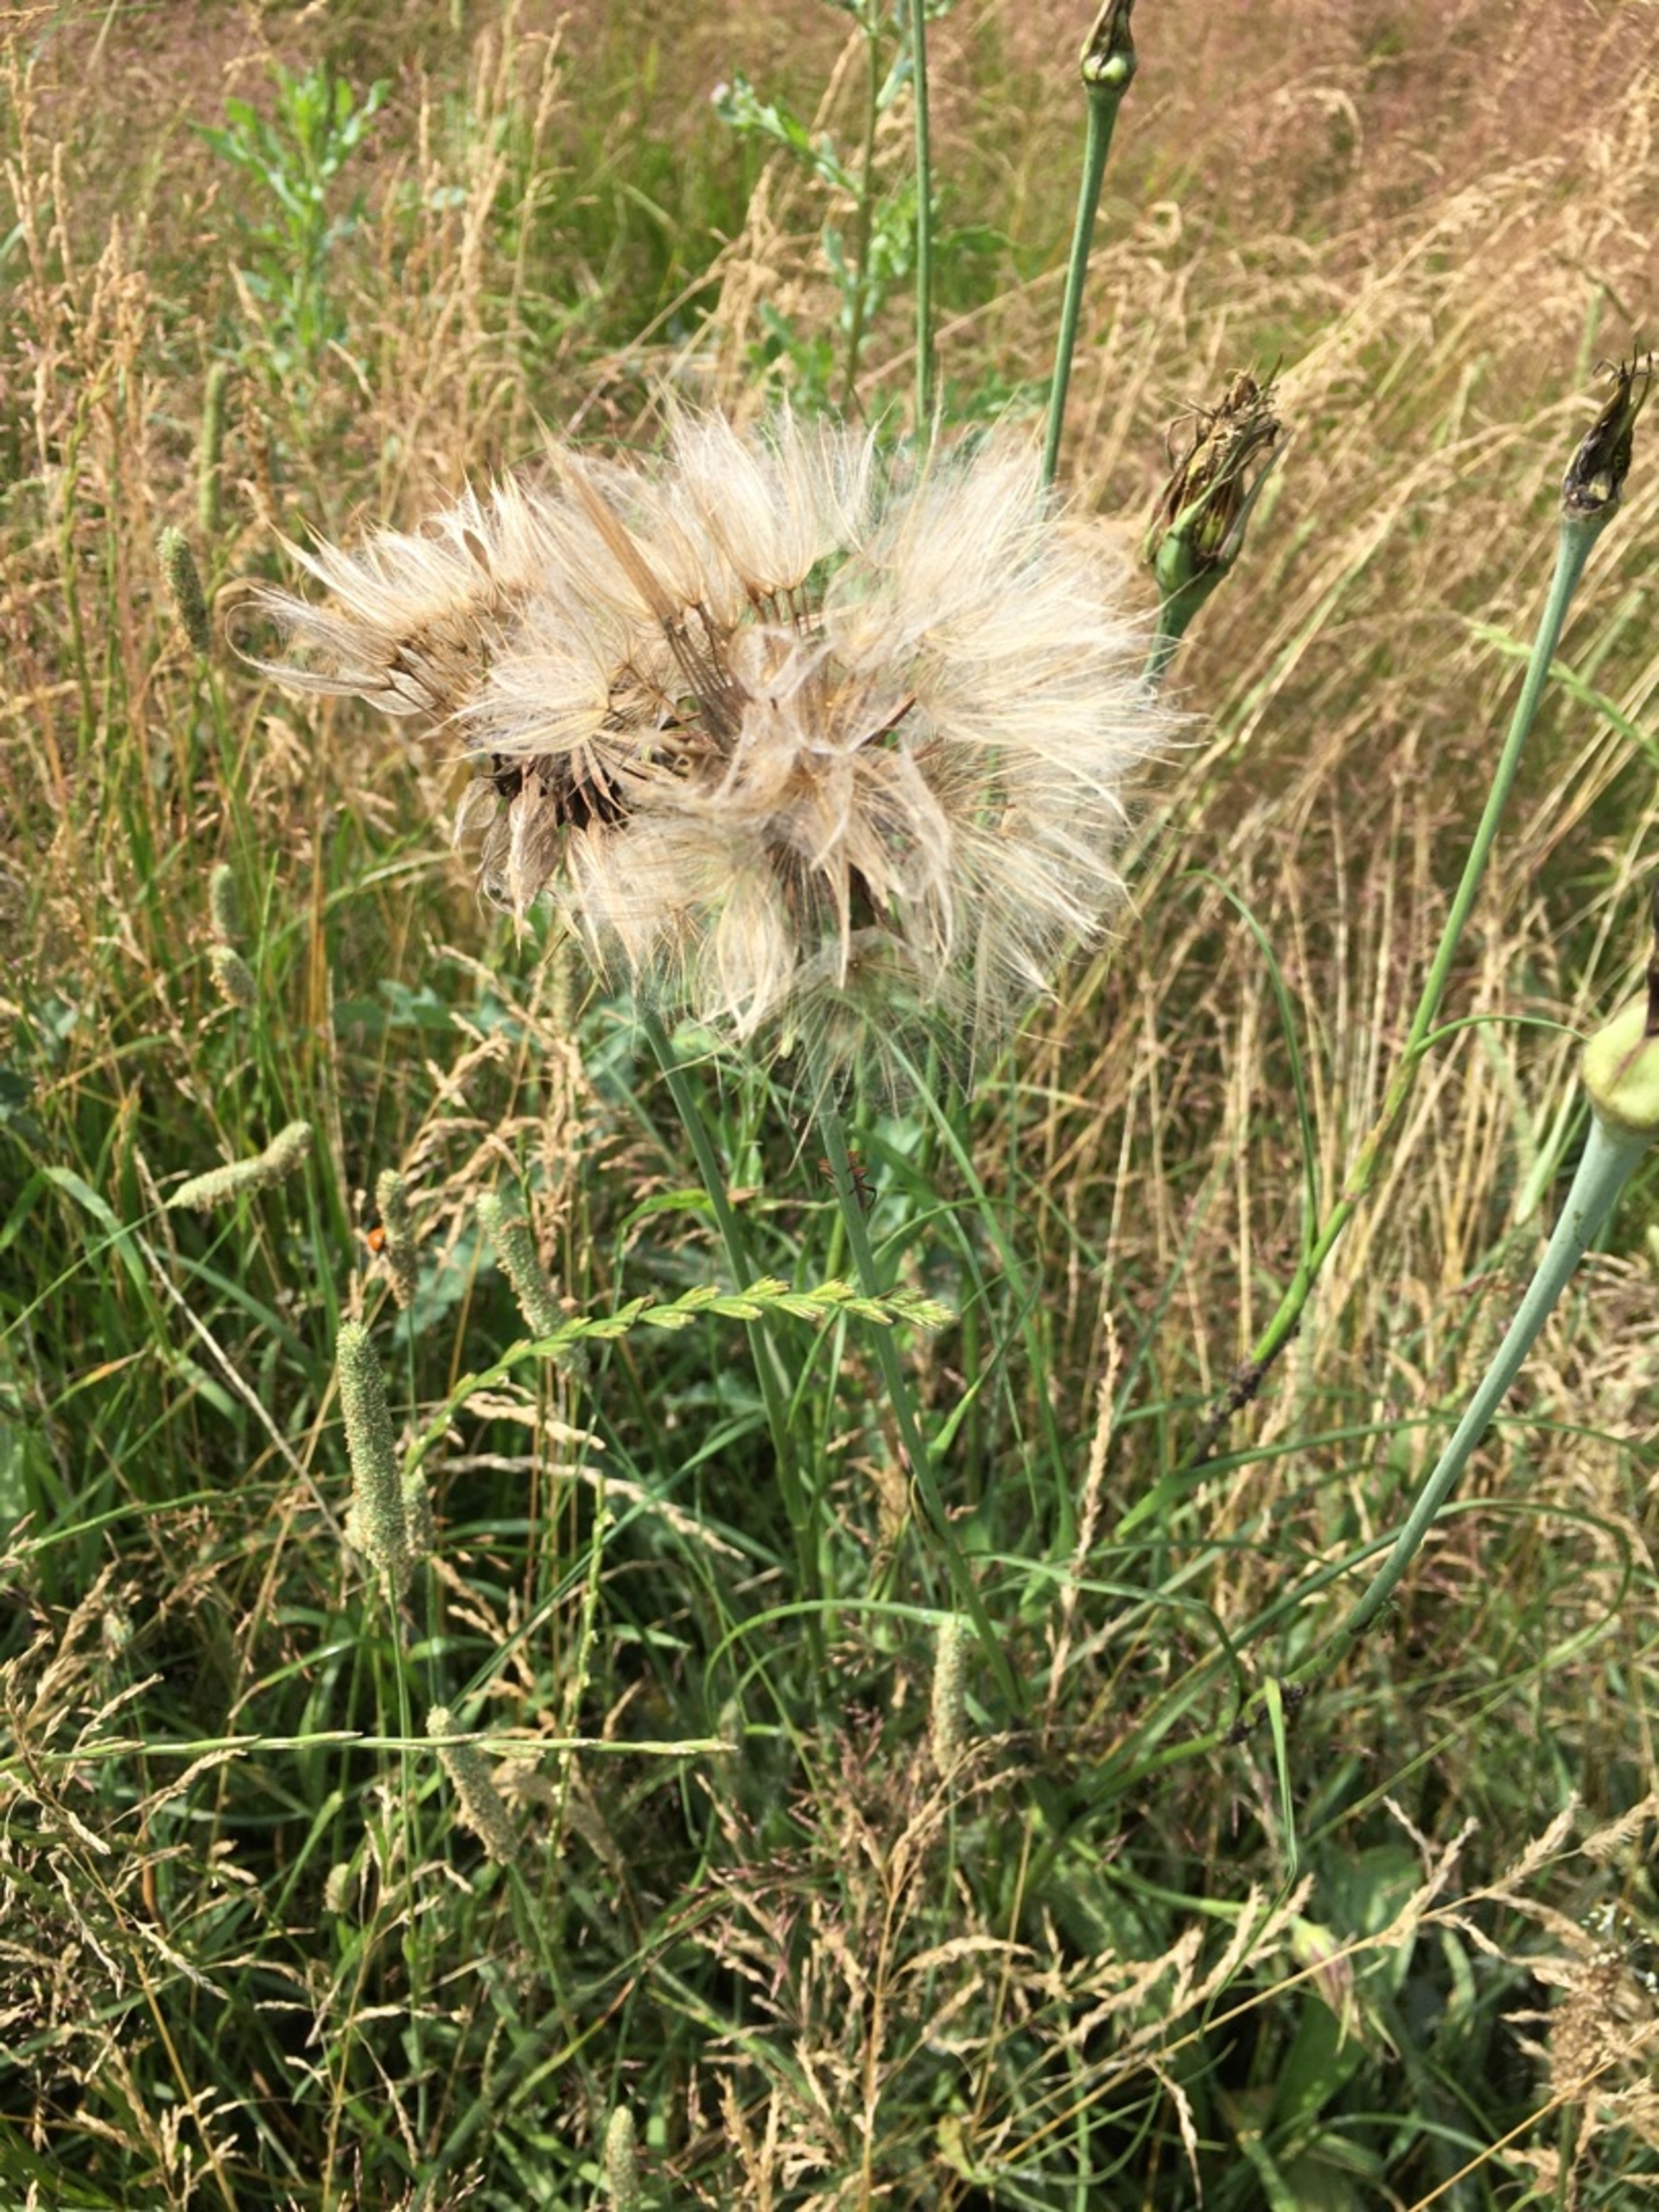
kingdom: Plantae
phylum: Tracheophyta
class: Magnoliopsida
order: Asterales
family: Asteraceae
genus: Tragopogon
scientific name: Tragopogon pratensis
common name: Gedeskæg
